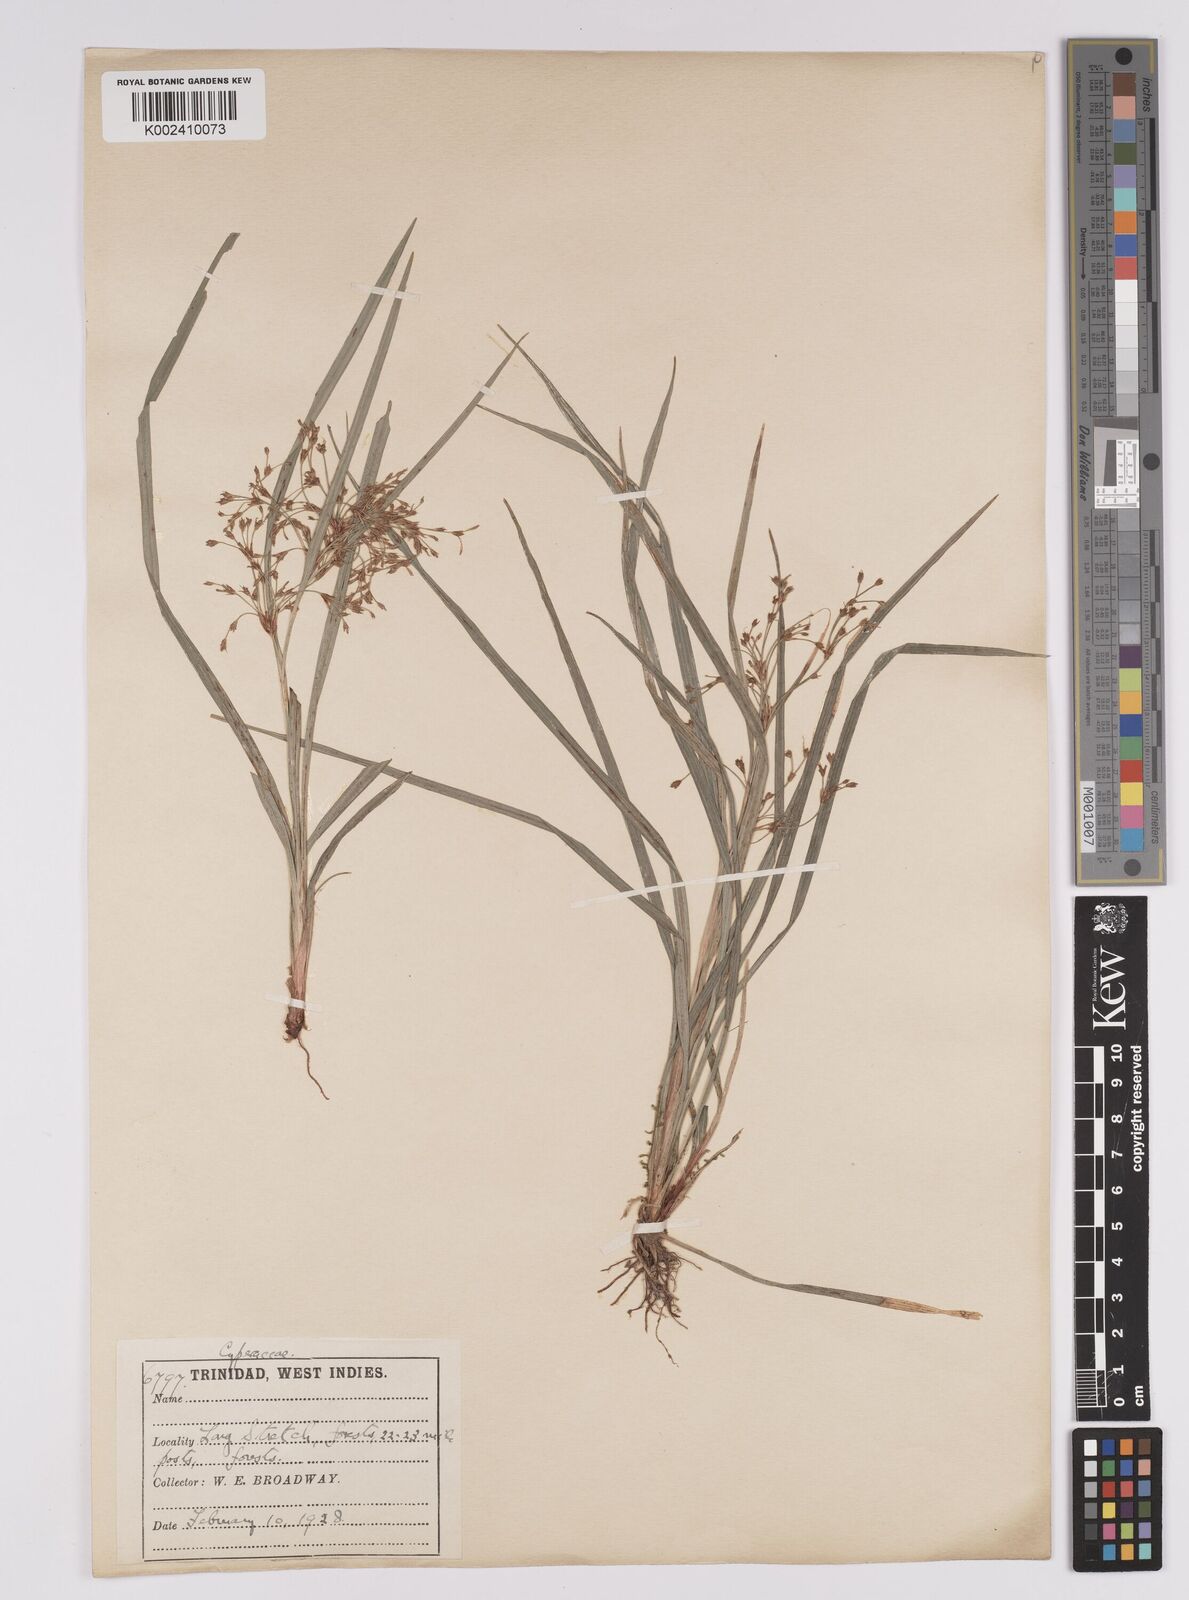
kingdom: Plantae
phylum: Tracheophyta
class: Liliopsida
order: Poales
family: Cyperaceae
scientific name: Cyperaceae
